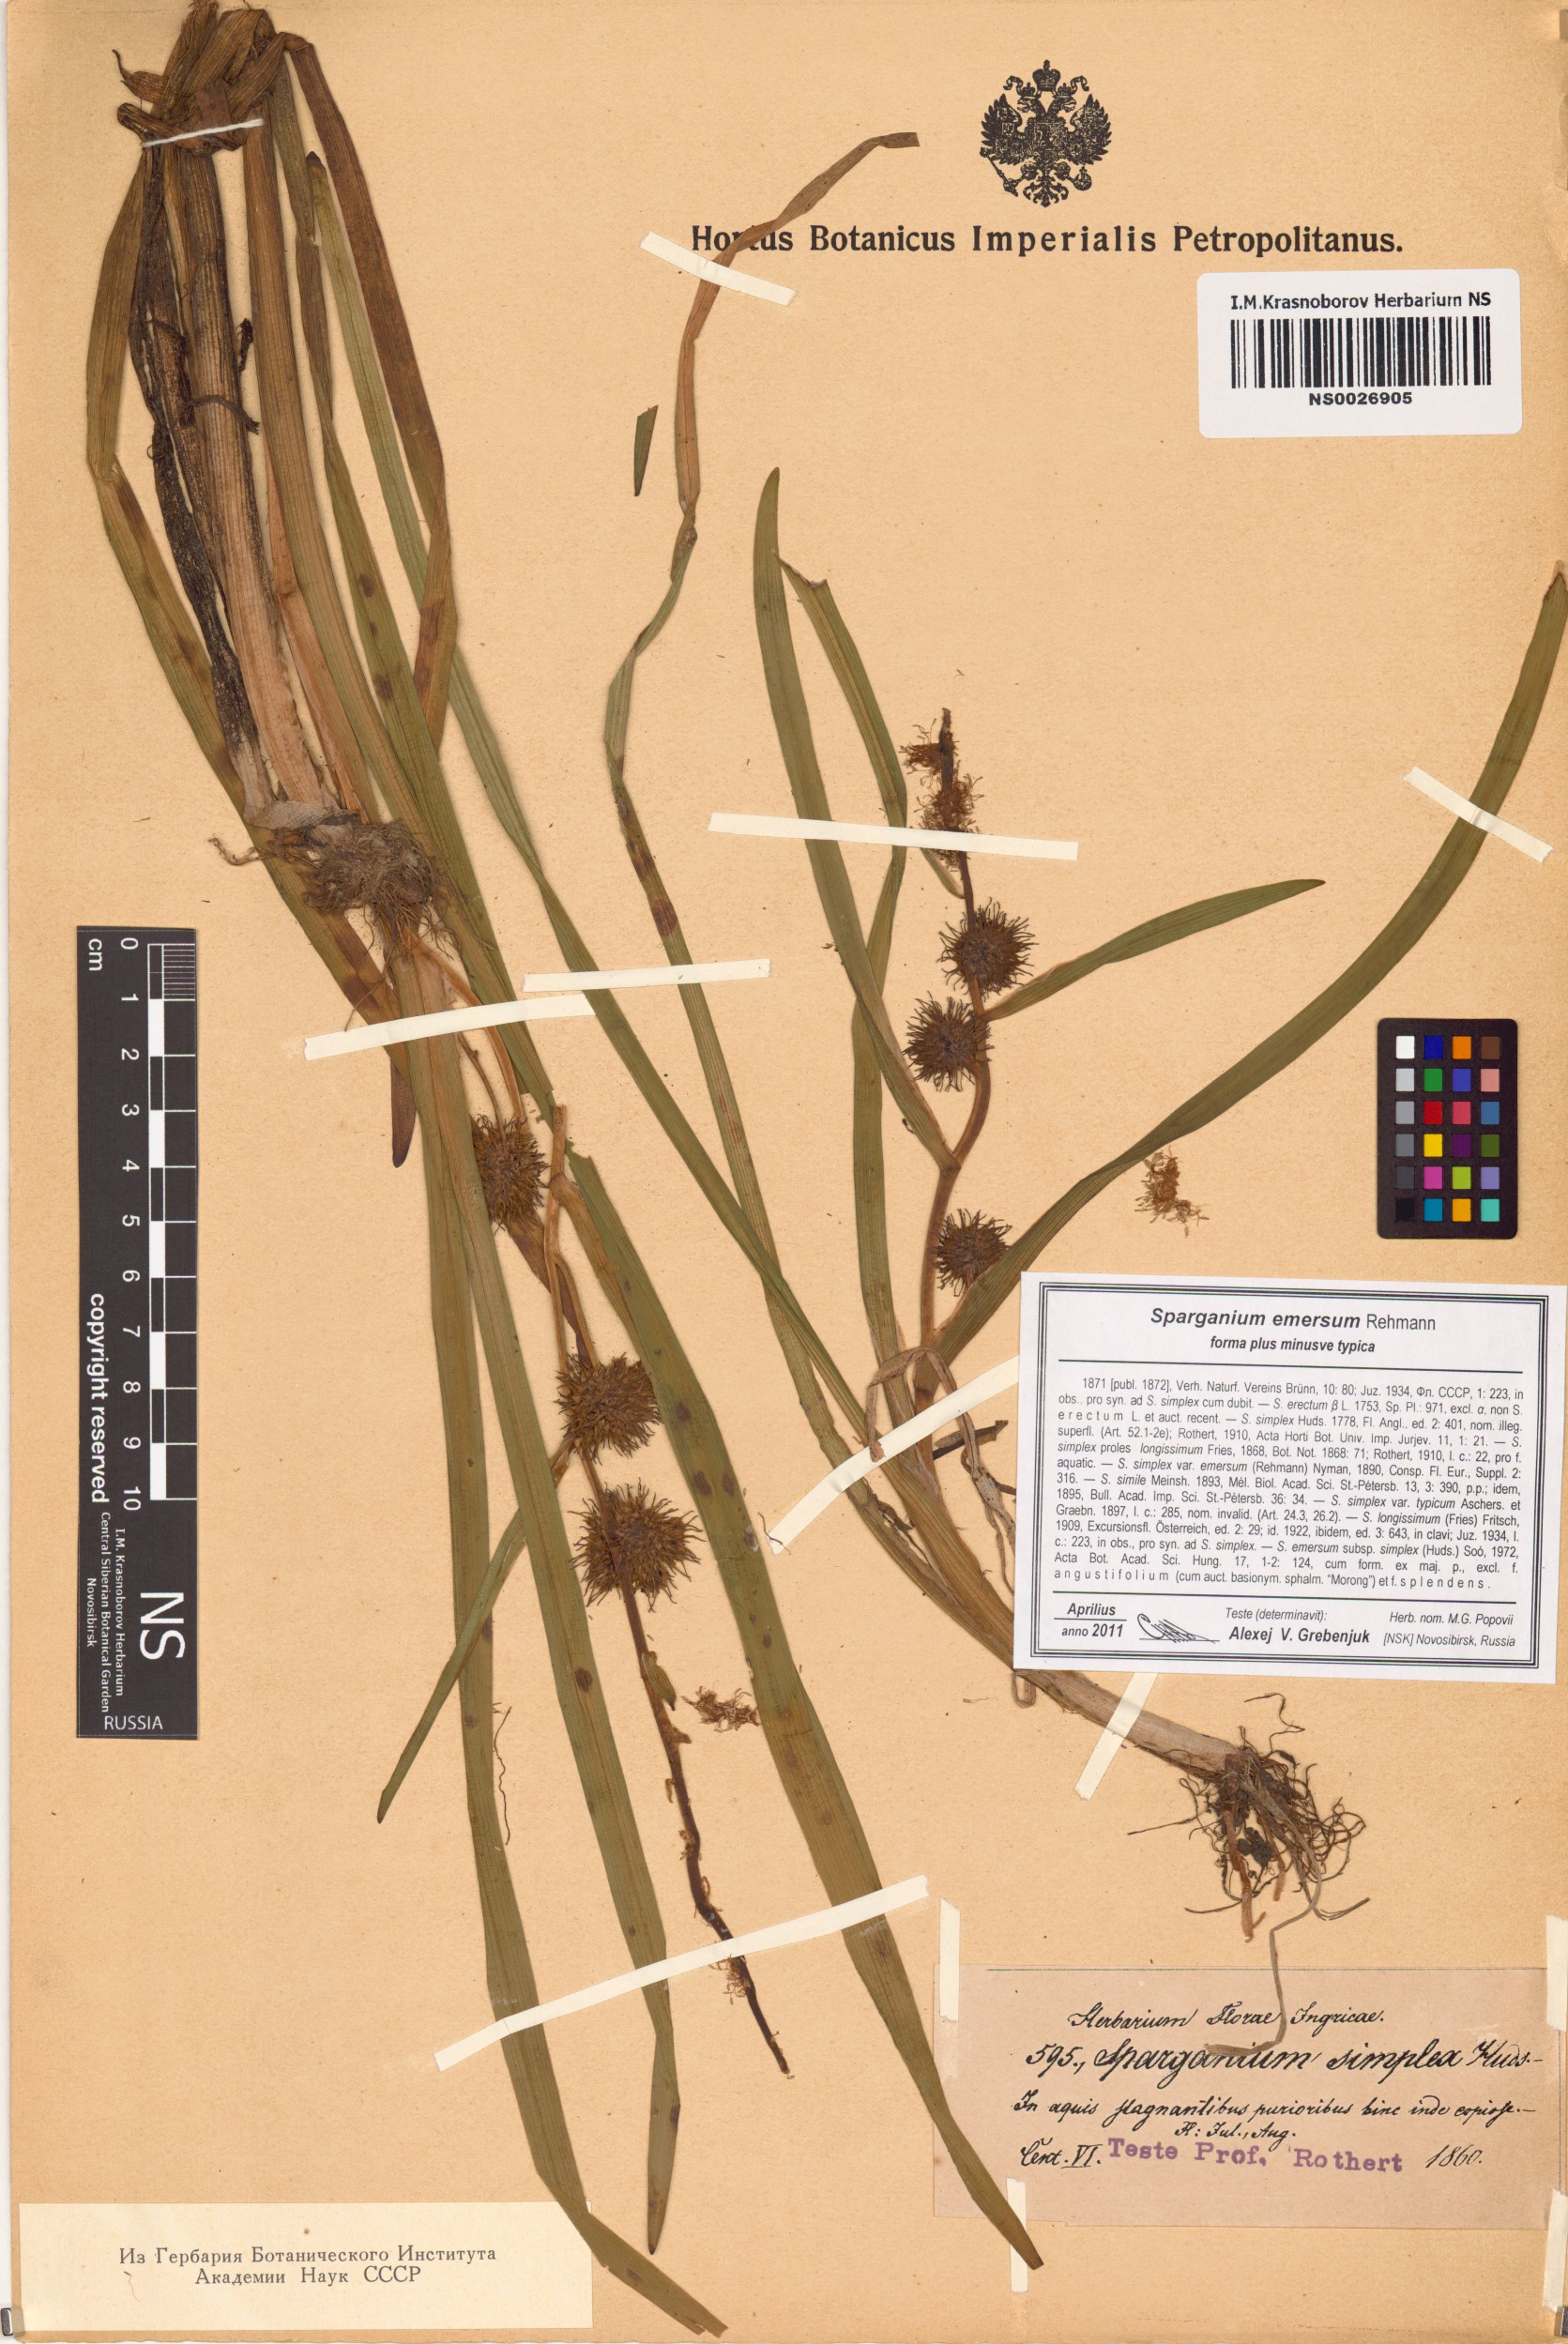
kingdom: Plantae
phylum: Tracheophyta
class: Liliopsida
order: Poales
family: Typhaceae
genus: Sparganium
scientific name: Sparganium emersum
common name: Unbranched bur-reed
